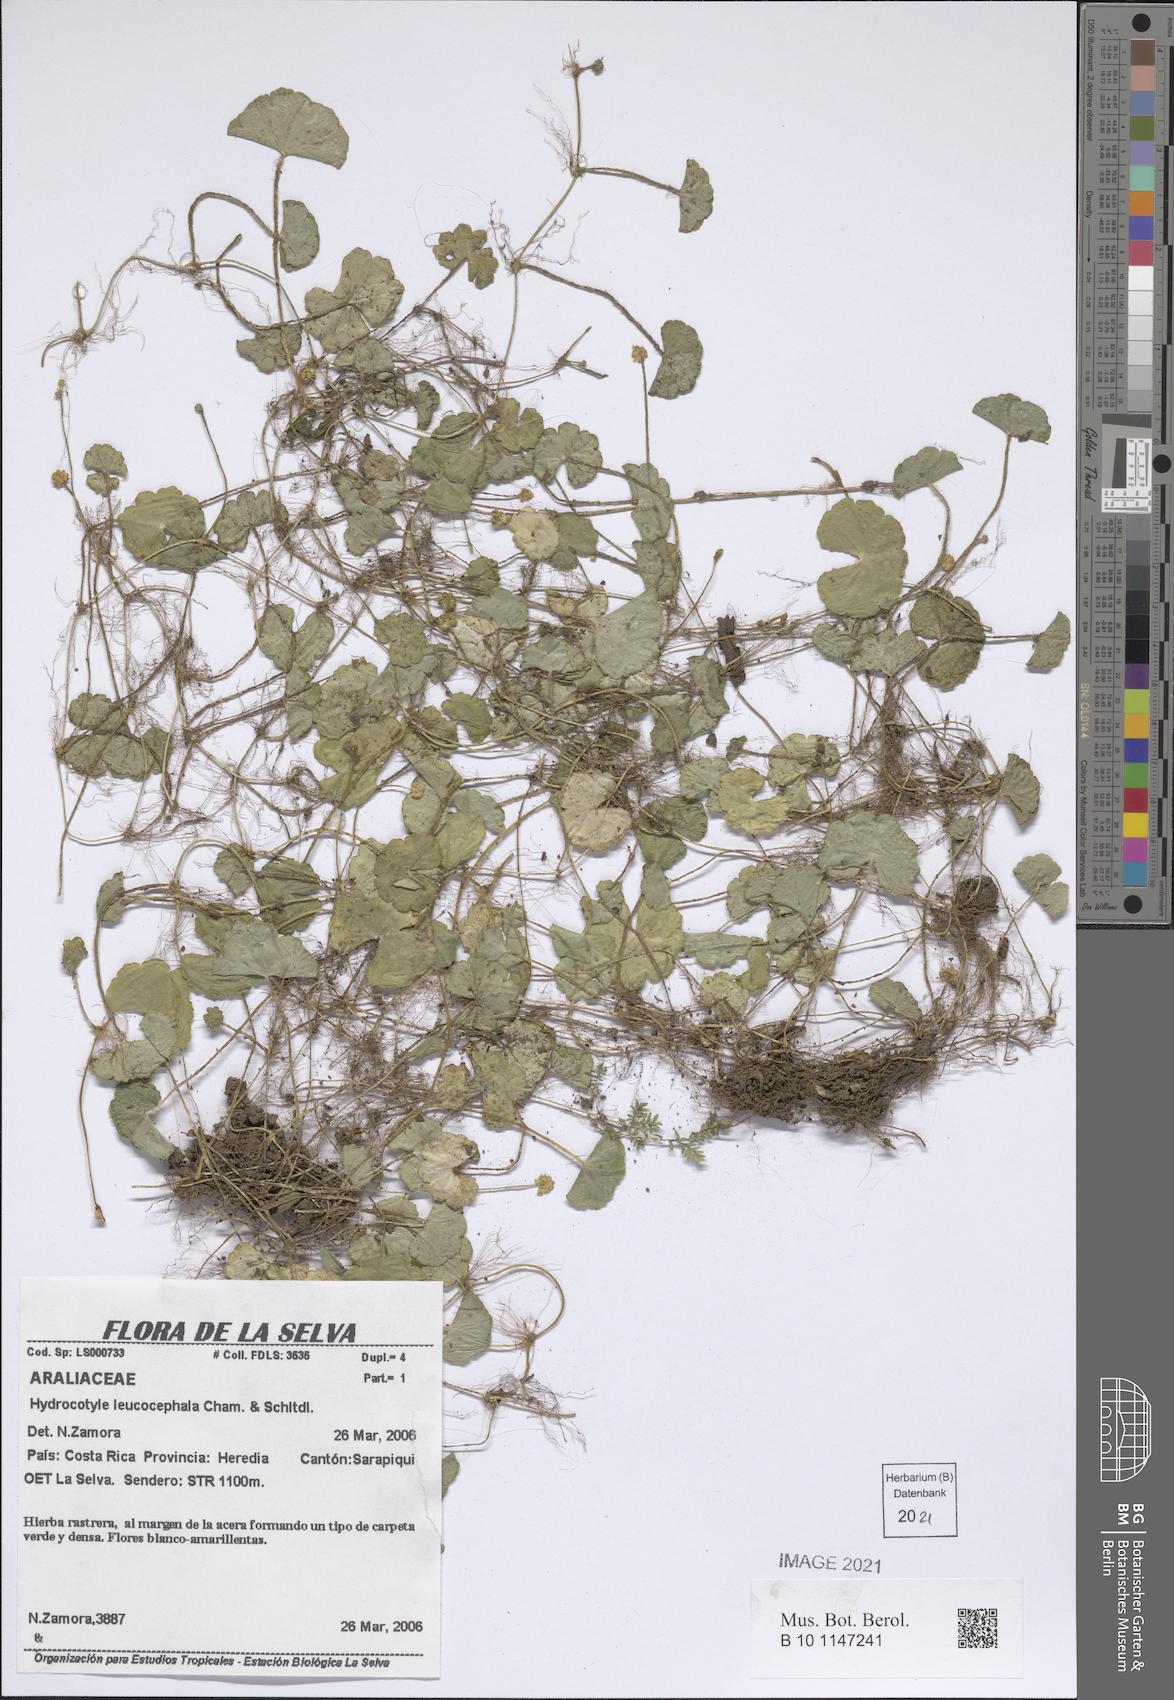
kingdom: Plantae
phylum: Tracheophyta
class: Magnoliopsida
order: Apiales
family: Araliaceae
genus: Hydrocotyle
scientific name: Hydrocotyle leucocephala
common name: Brazilian pennywort
